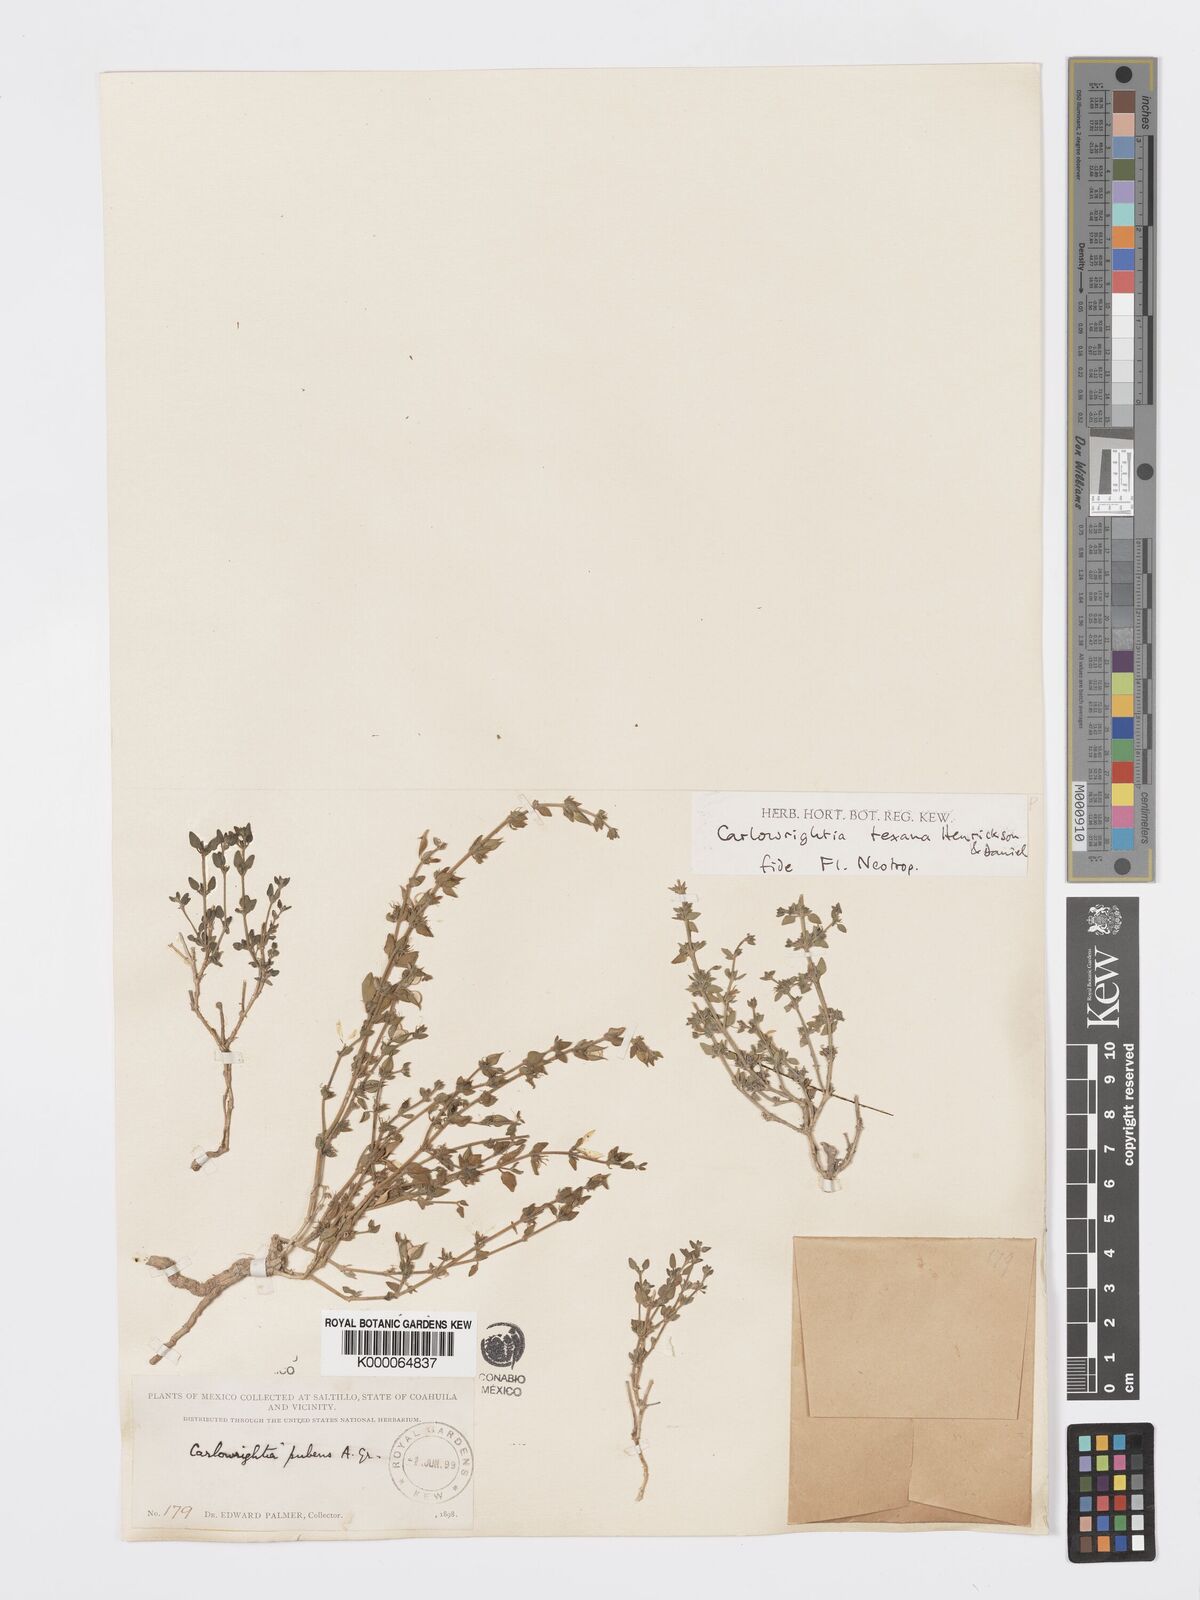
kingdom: Plantae
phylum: Tracheophyta
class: Magnoliopsida
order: Lamiales
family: Acanthaceae
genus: Carlowrightia
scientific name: Carlowrightia texana
